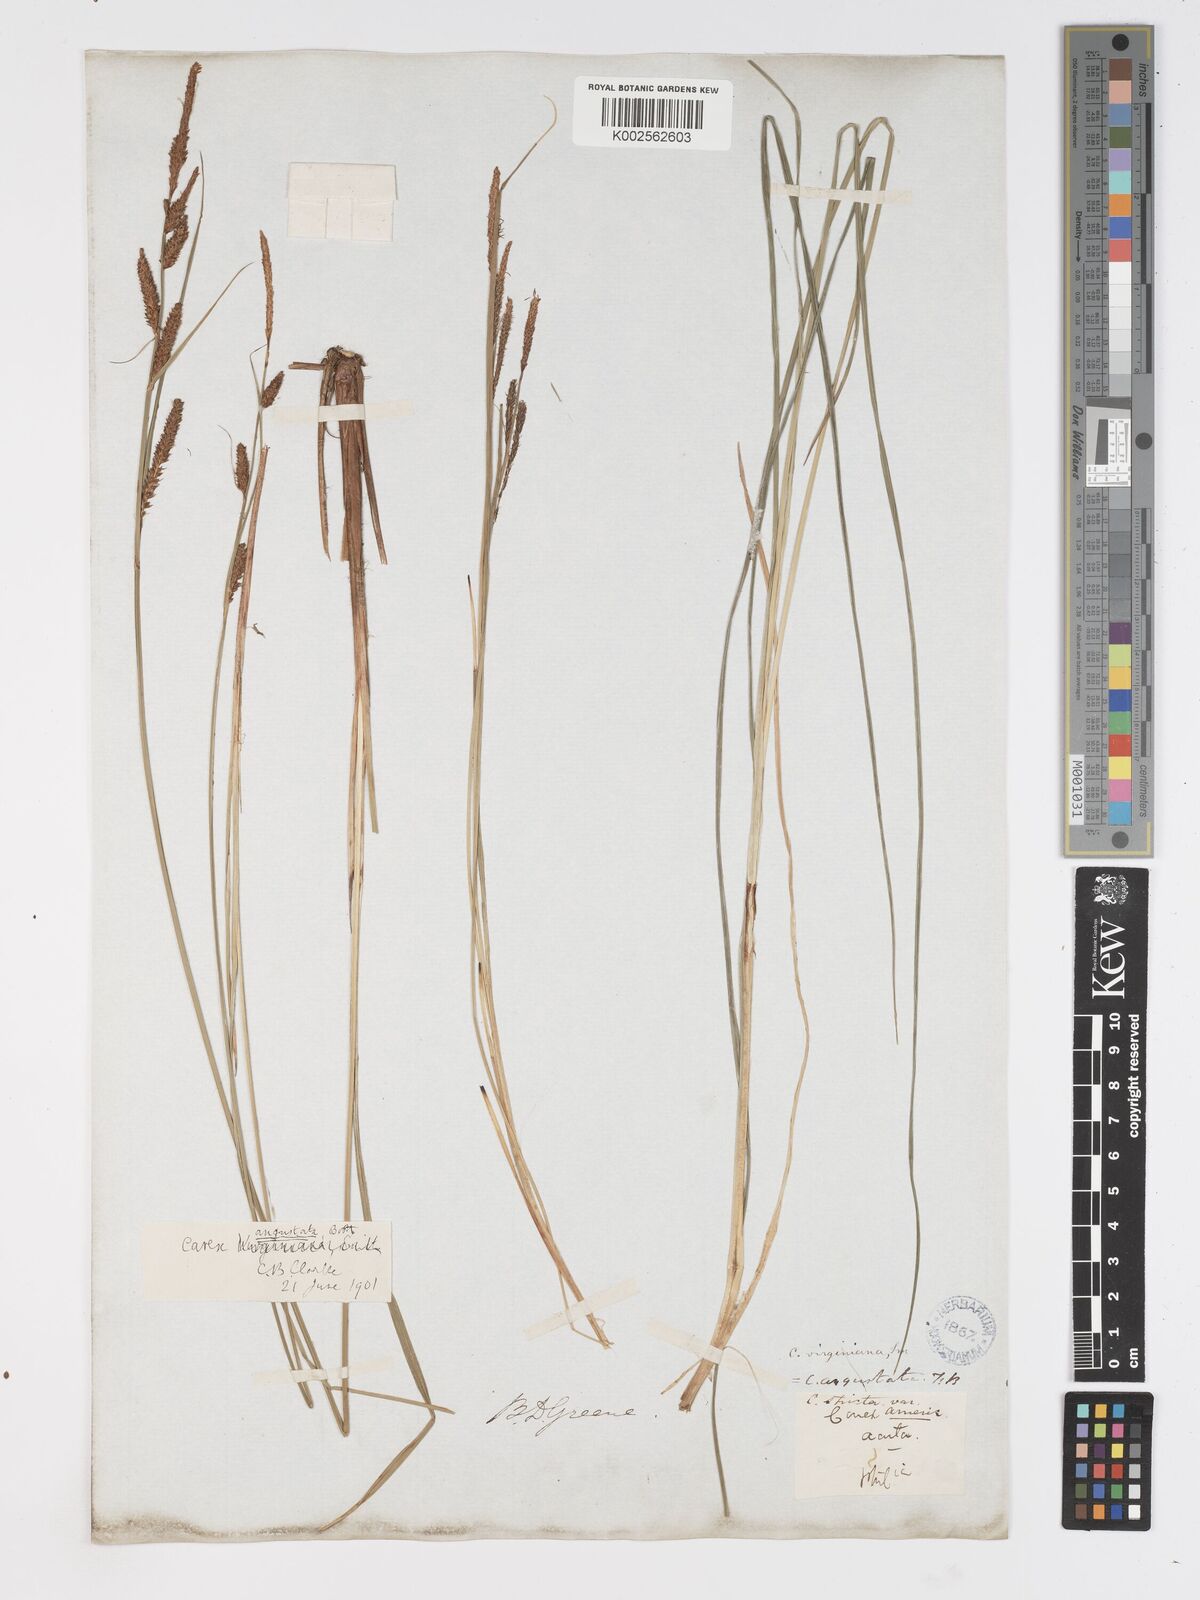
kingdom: Plantae
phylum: Tracheophyta
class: Liliopsida
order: Poales
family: Cyperaceae
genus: Carex
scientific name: Carex stricta
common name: Hummock sedge
